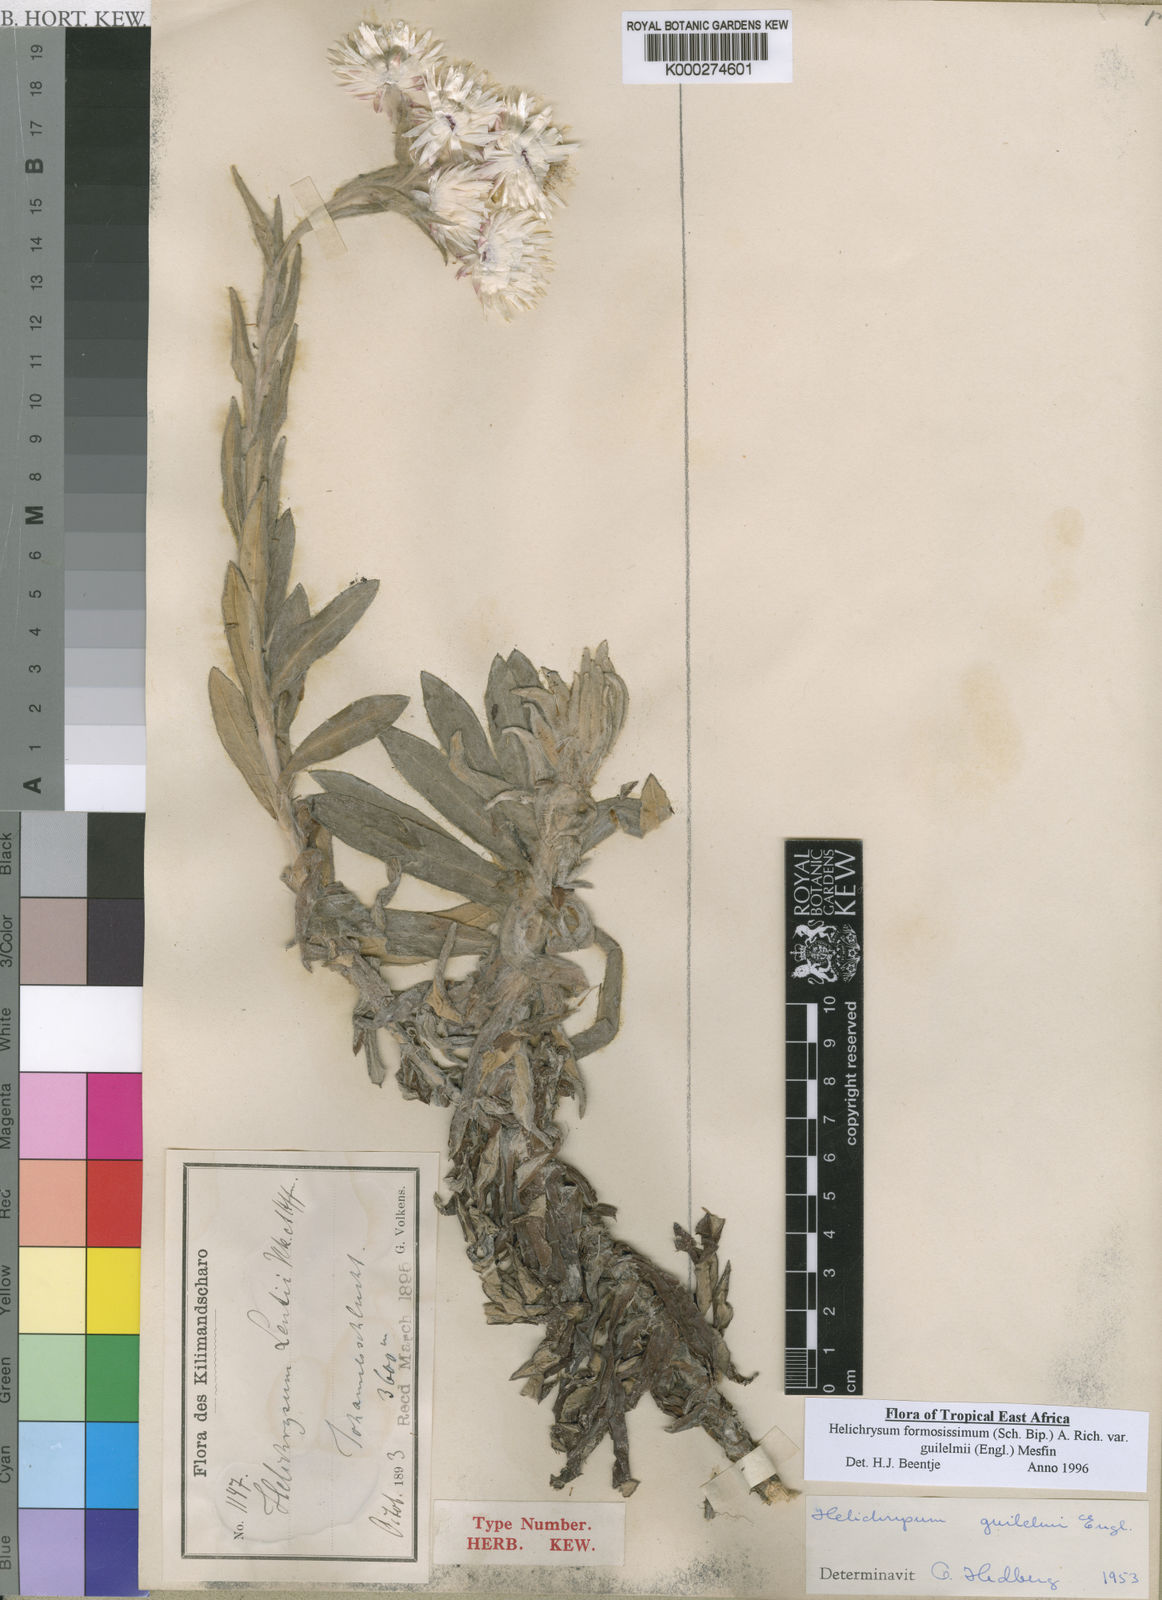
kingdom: Plantae
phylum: Tracheophyta
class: Magnoliopsida
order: Asterales
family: Asteraceae
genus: Helichrysum
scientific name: Helichrysum formosissimum
